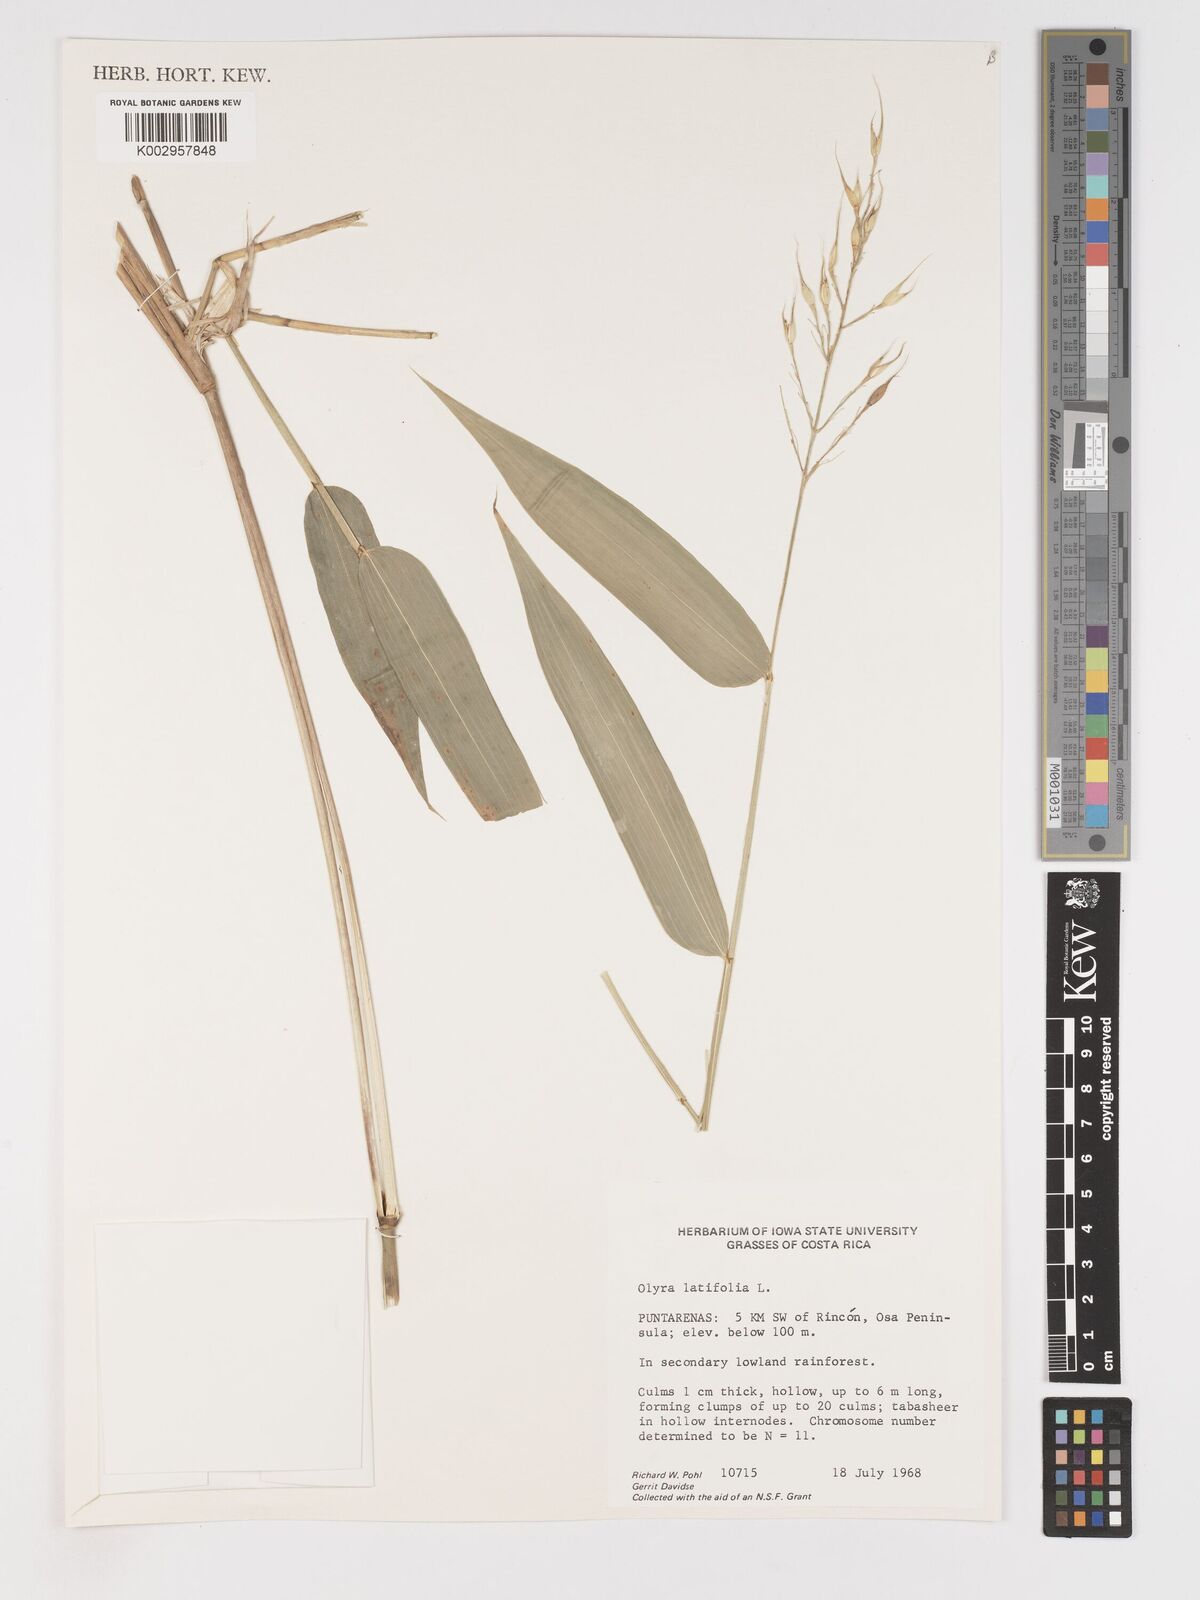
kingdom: Plantae
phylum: Tracheophyta
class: Liliopsida
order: Poales
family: Poaceae
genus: Olyra
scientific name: Olyra latifolia
